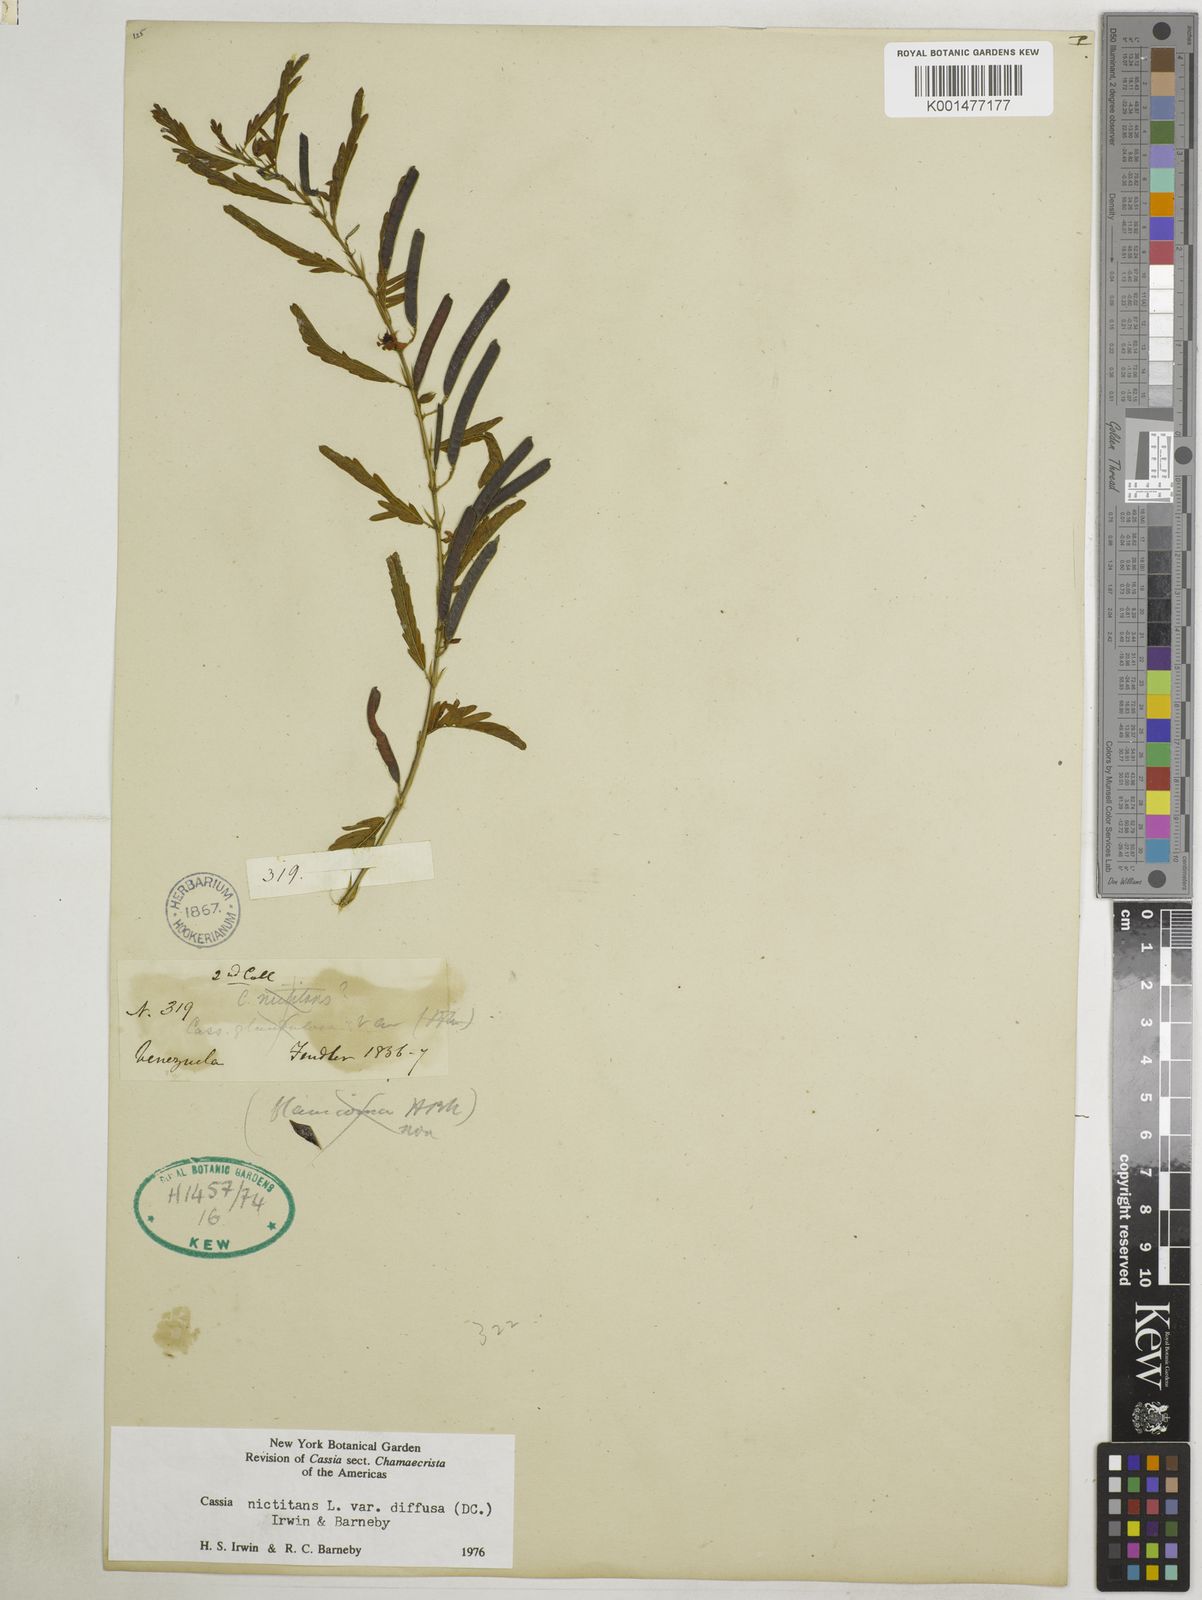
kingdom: Plantae
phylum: Tracheophyta
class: Magnoliopsida
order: Fabales
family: Fabaceae
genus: Chamaecrista
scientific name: Chamaecrista nictitans
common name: Sensitive cassia
